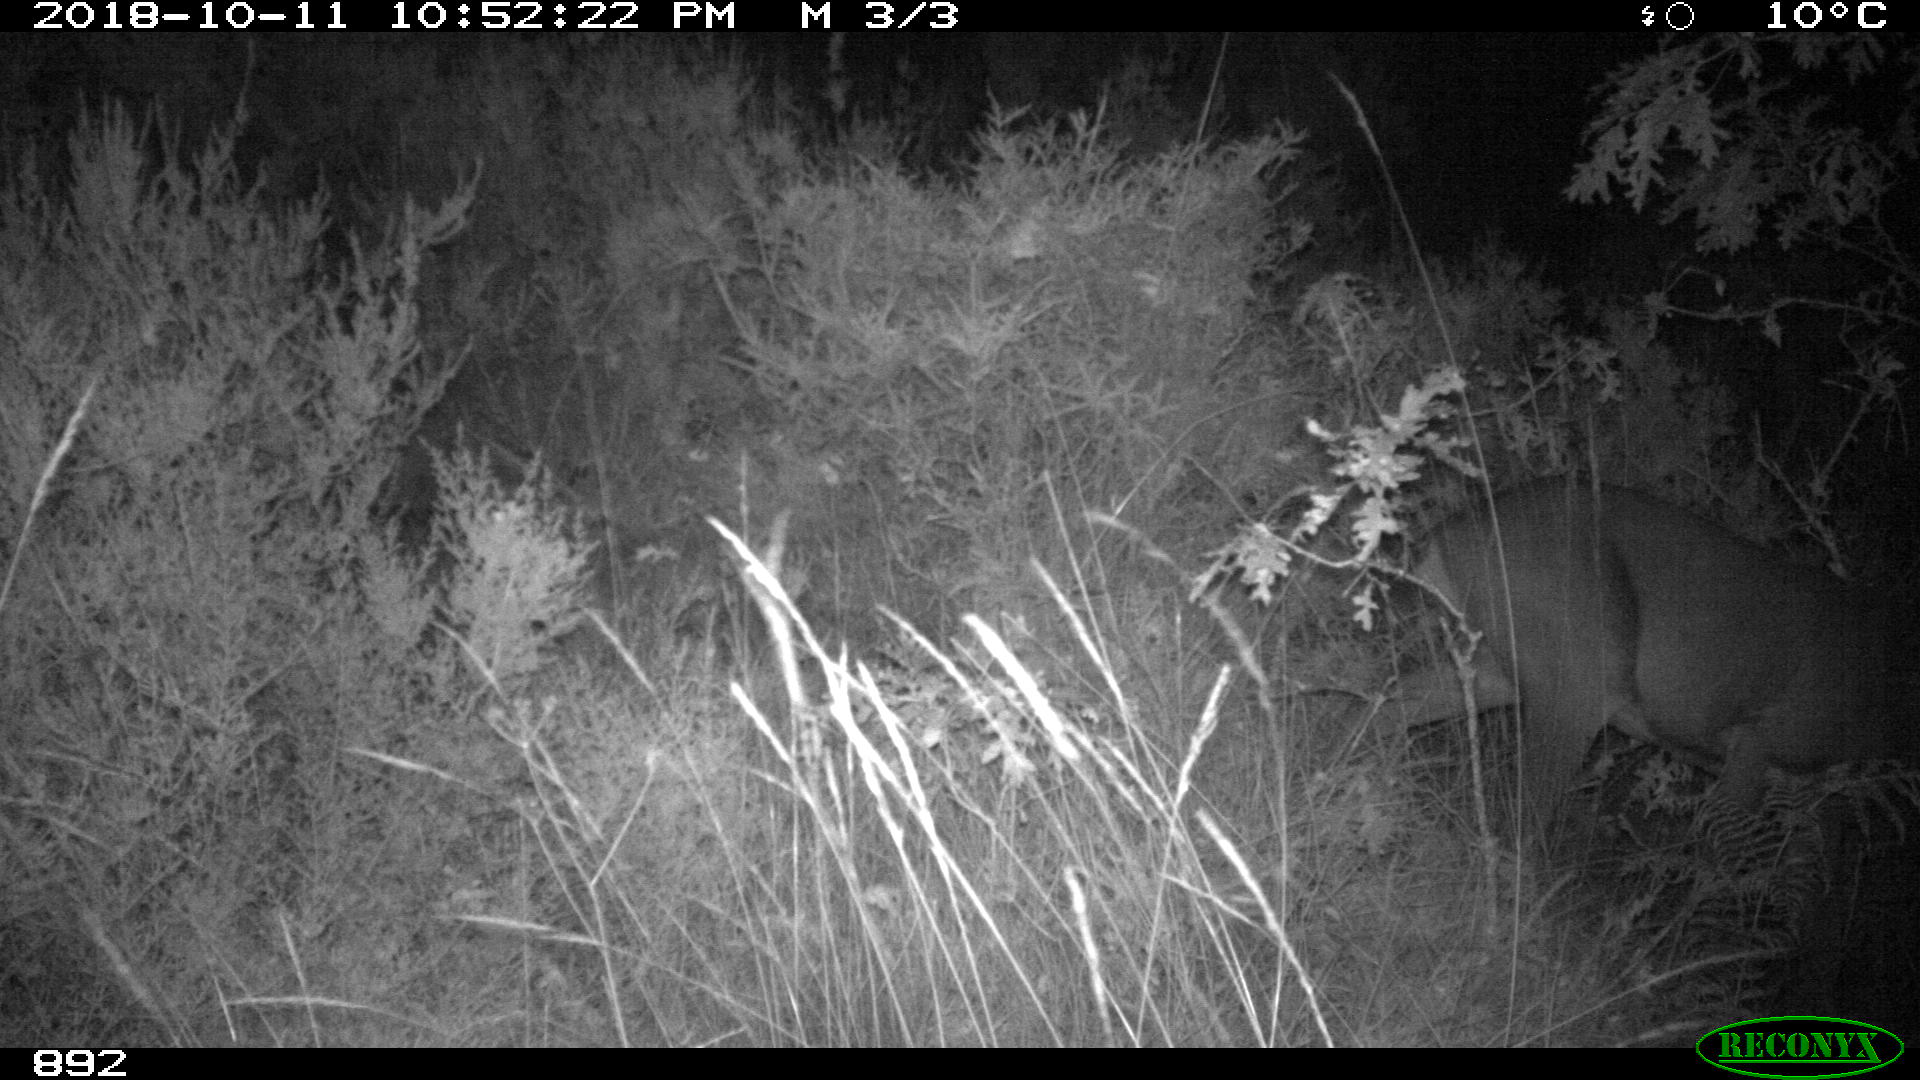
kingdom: Animalia
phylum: Chordata
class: Mammalia
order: Artiodactyla
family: Cervidae
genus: Capreolus
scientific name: Capreolus capreolus
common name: Western roe deer
